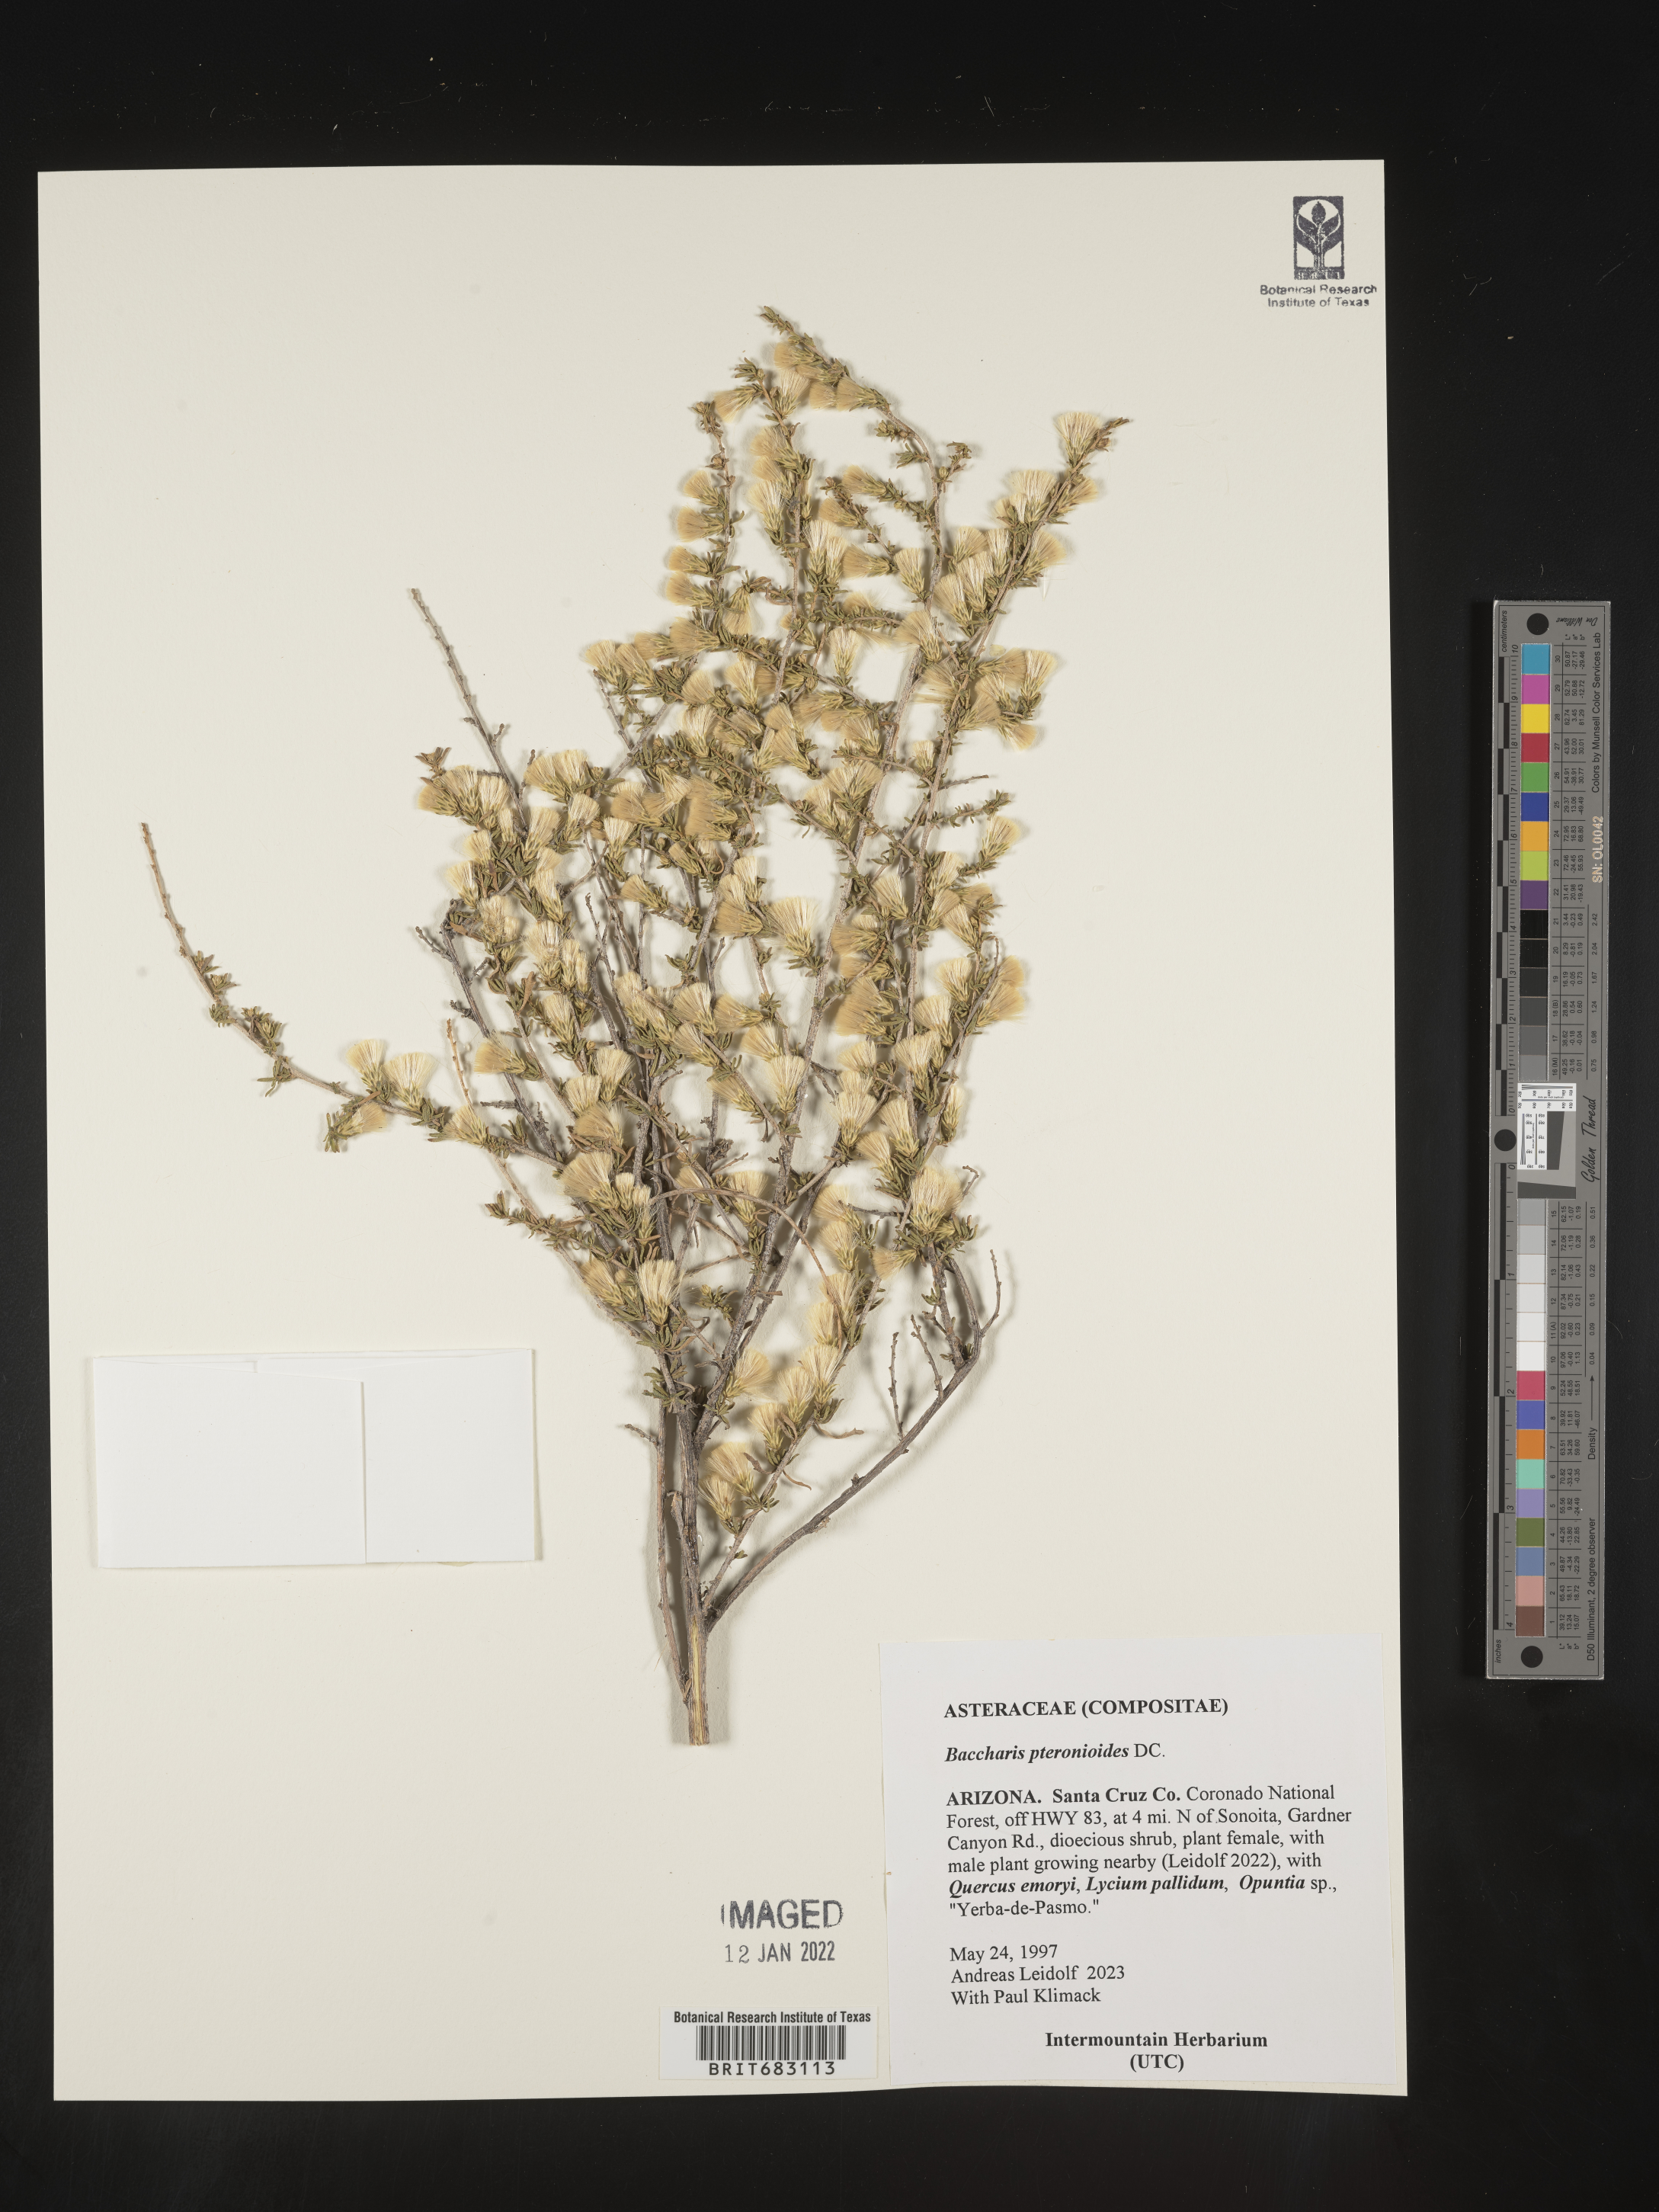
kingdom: Plantae
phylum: Tracheophyta
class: Magnoliopsida
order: Asterales
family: Asteraceae
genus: Baccharis
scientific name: Baccharis pteronioides
